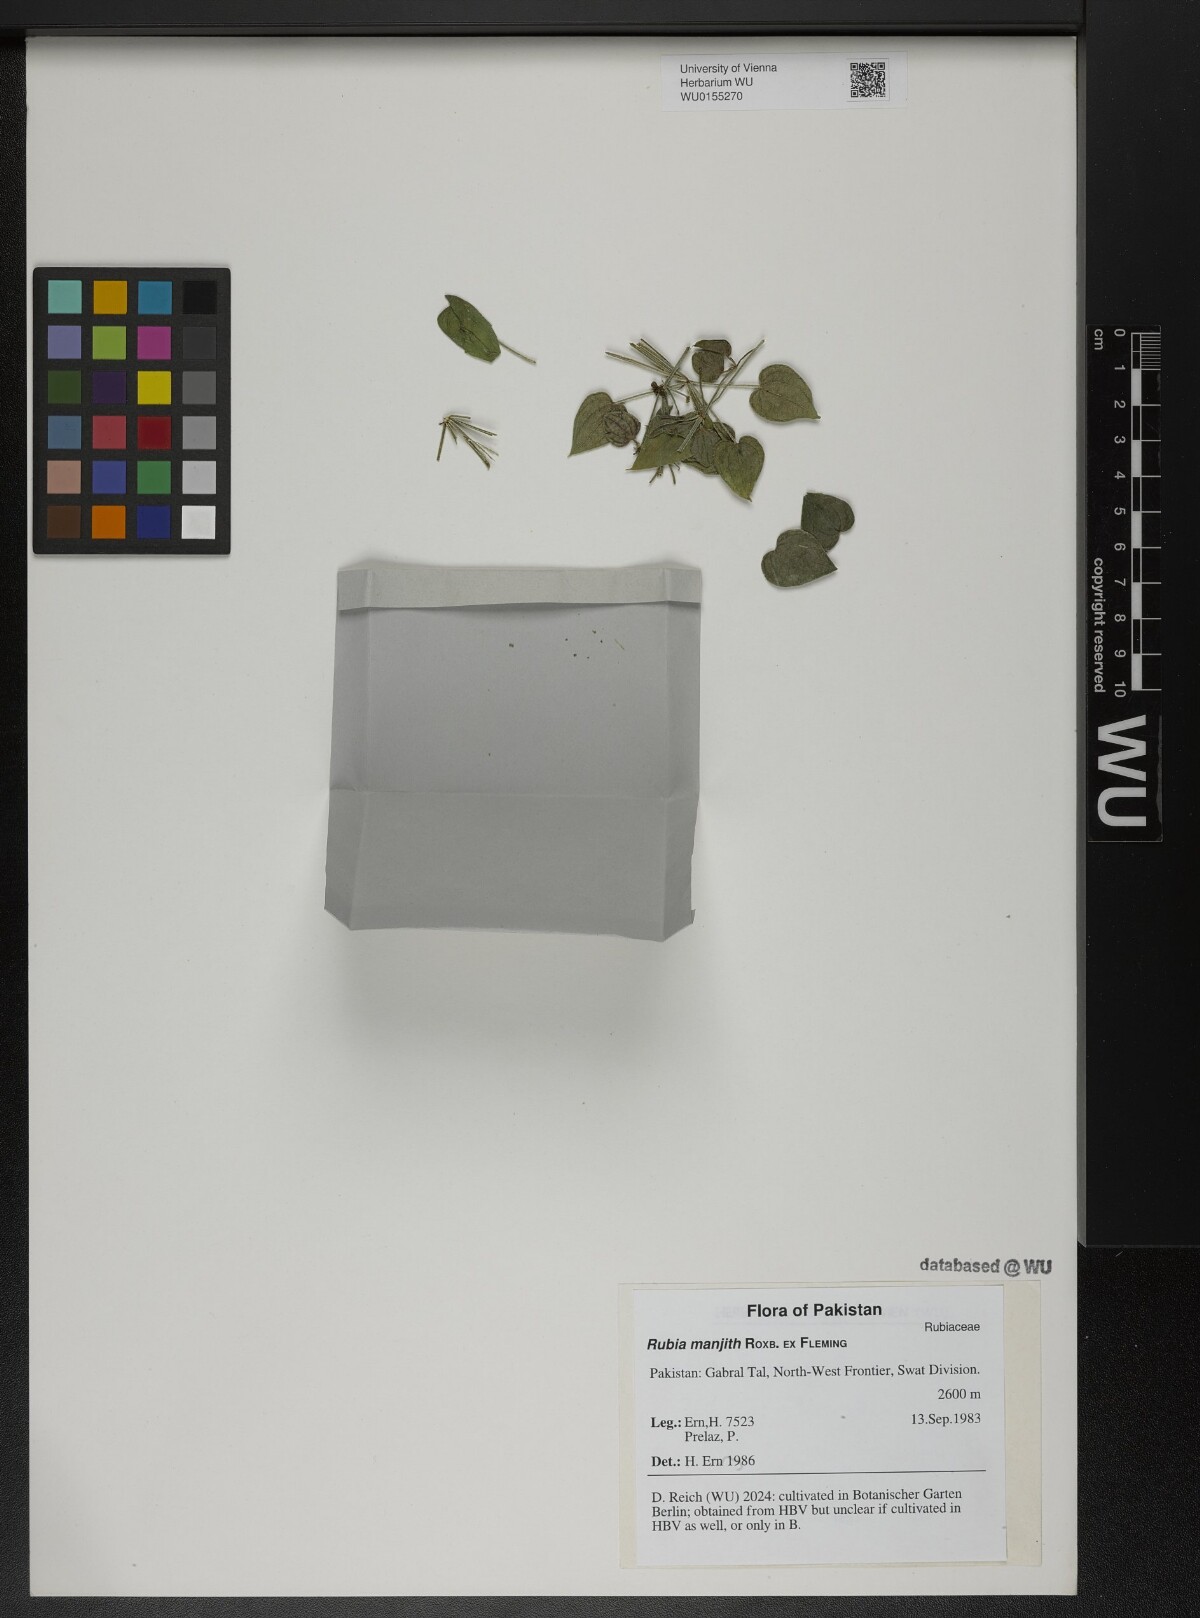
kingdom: Plantae
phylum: Tracheophyta
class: Magnoliopsida
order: Gentianales
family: Rubiaceae
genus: Rubia
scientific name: Rubia manjith
